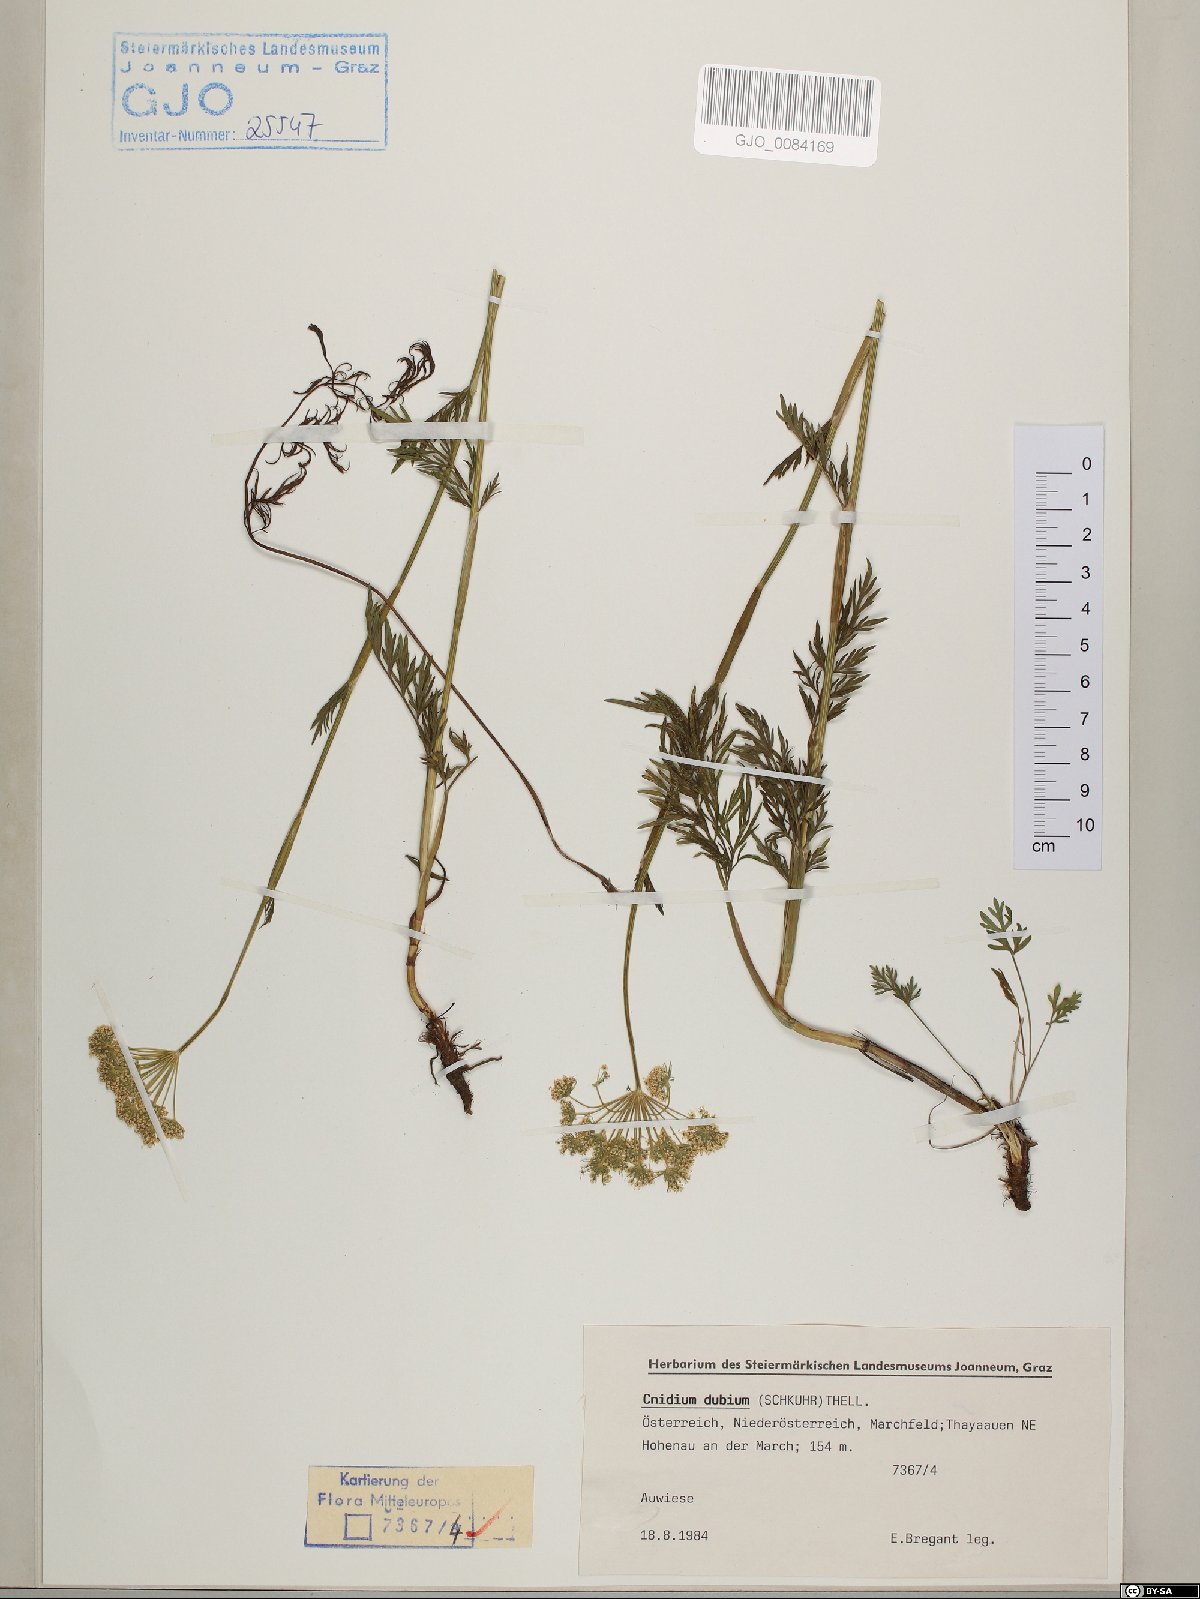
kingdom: Plantae
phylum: Tracheophyta
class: Magnoliopsida
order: Apiales
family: Apiaceae
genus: Kadenia
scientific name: Kadenia dubia
